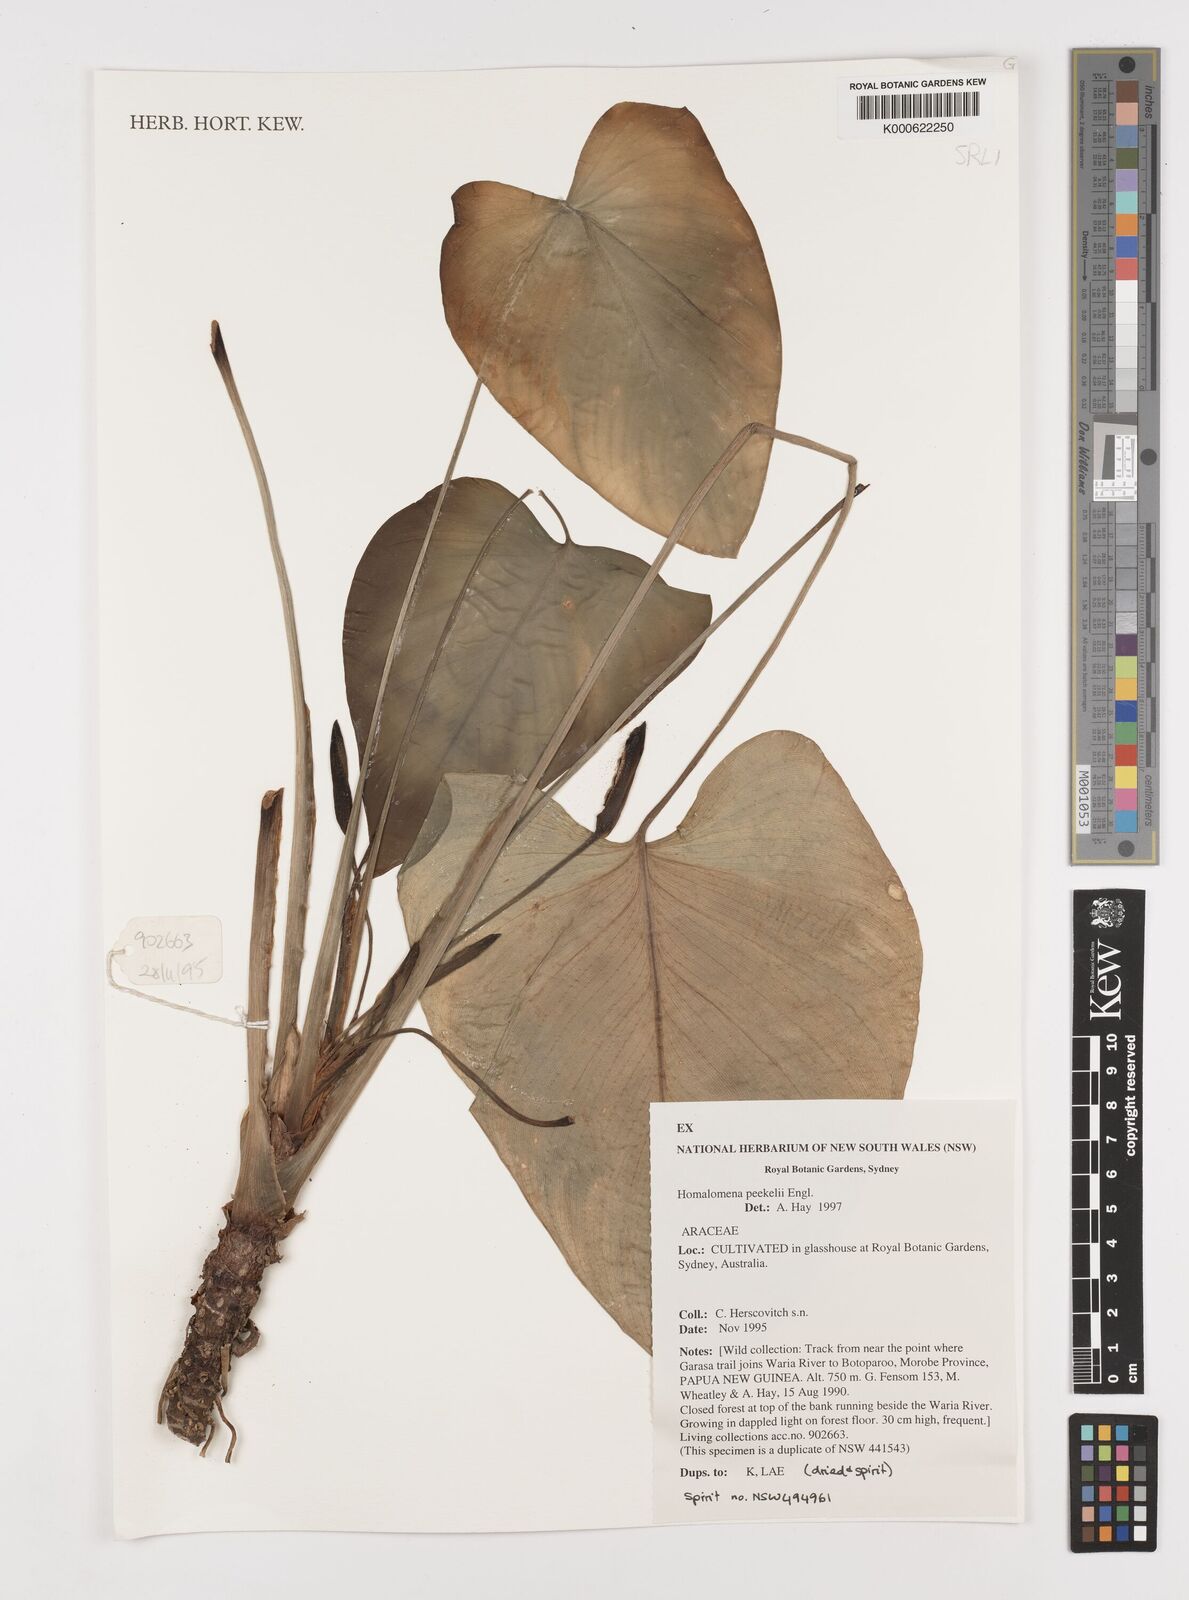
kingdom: Plantae
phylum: Tracheophyta
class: Liliopsida
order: Alismatales
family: Araceae
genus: Homalomena
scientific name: Homalomena peekelii
